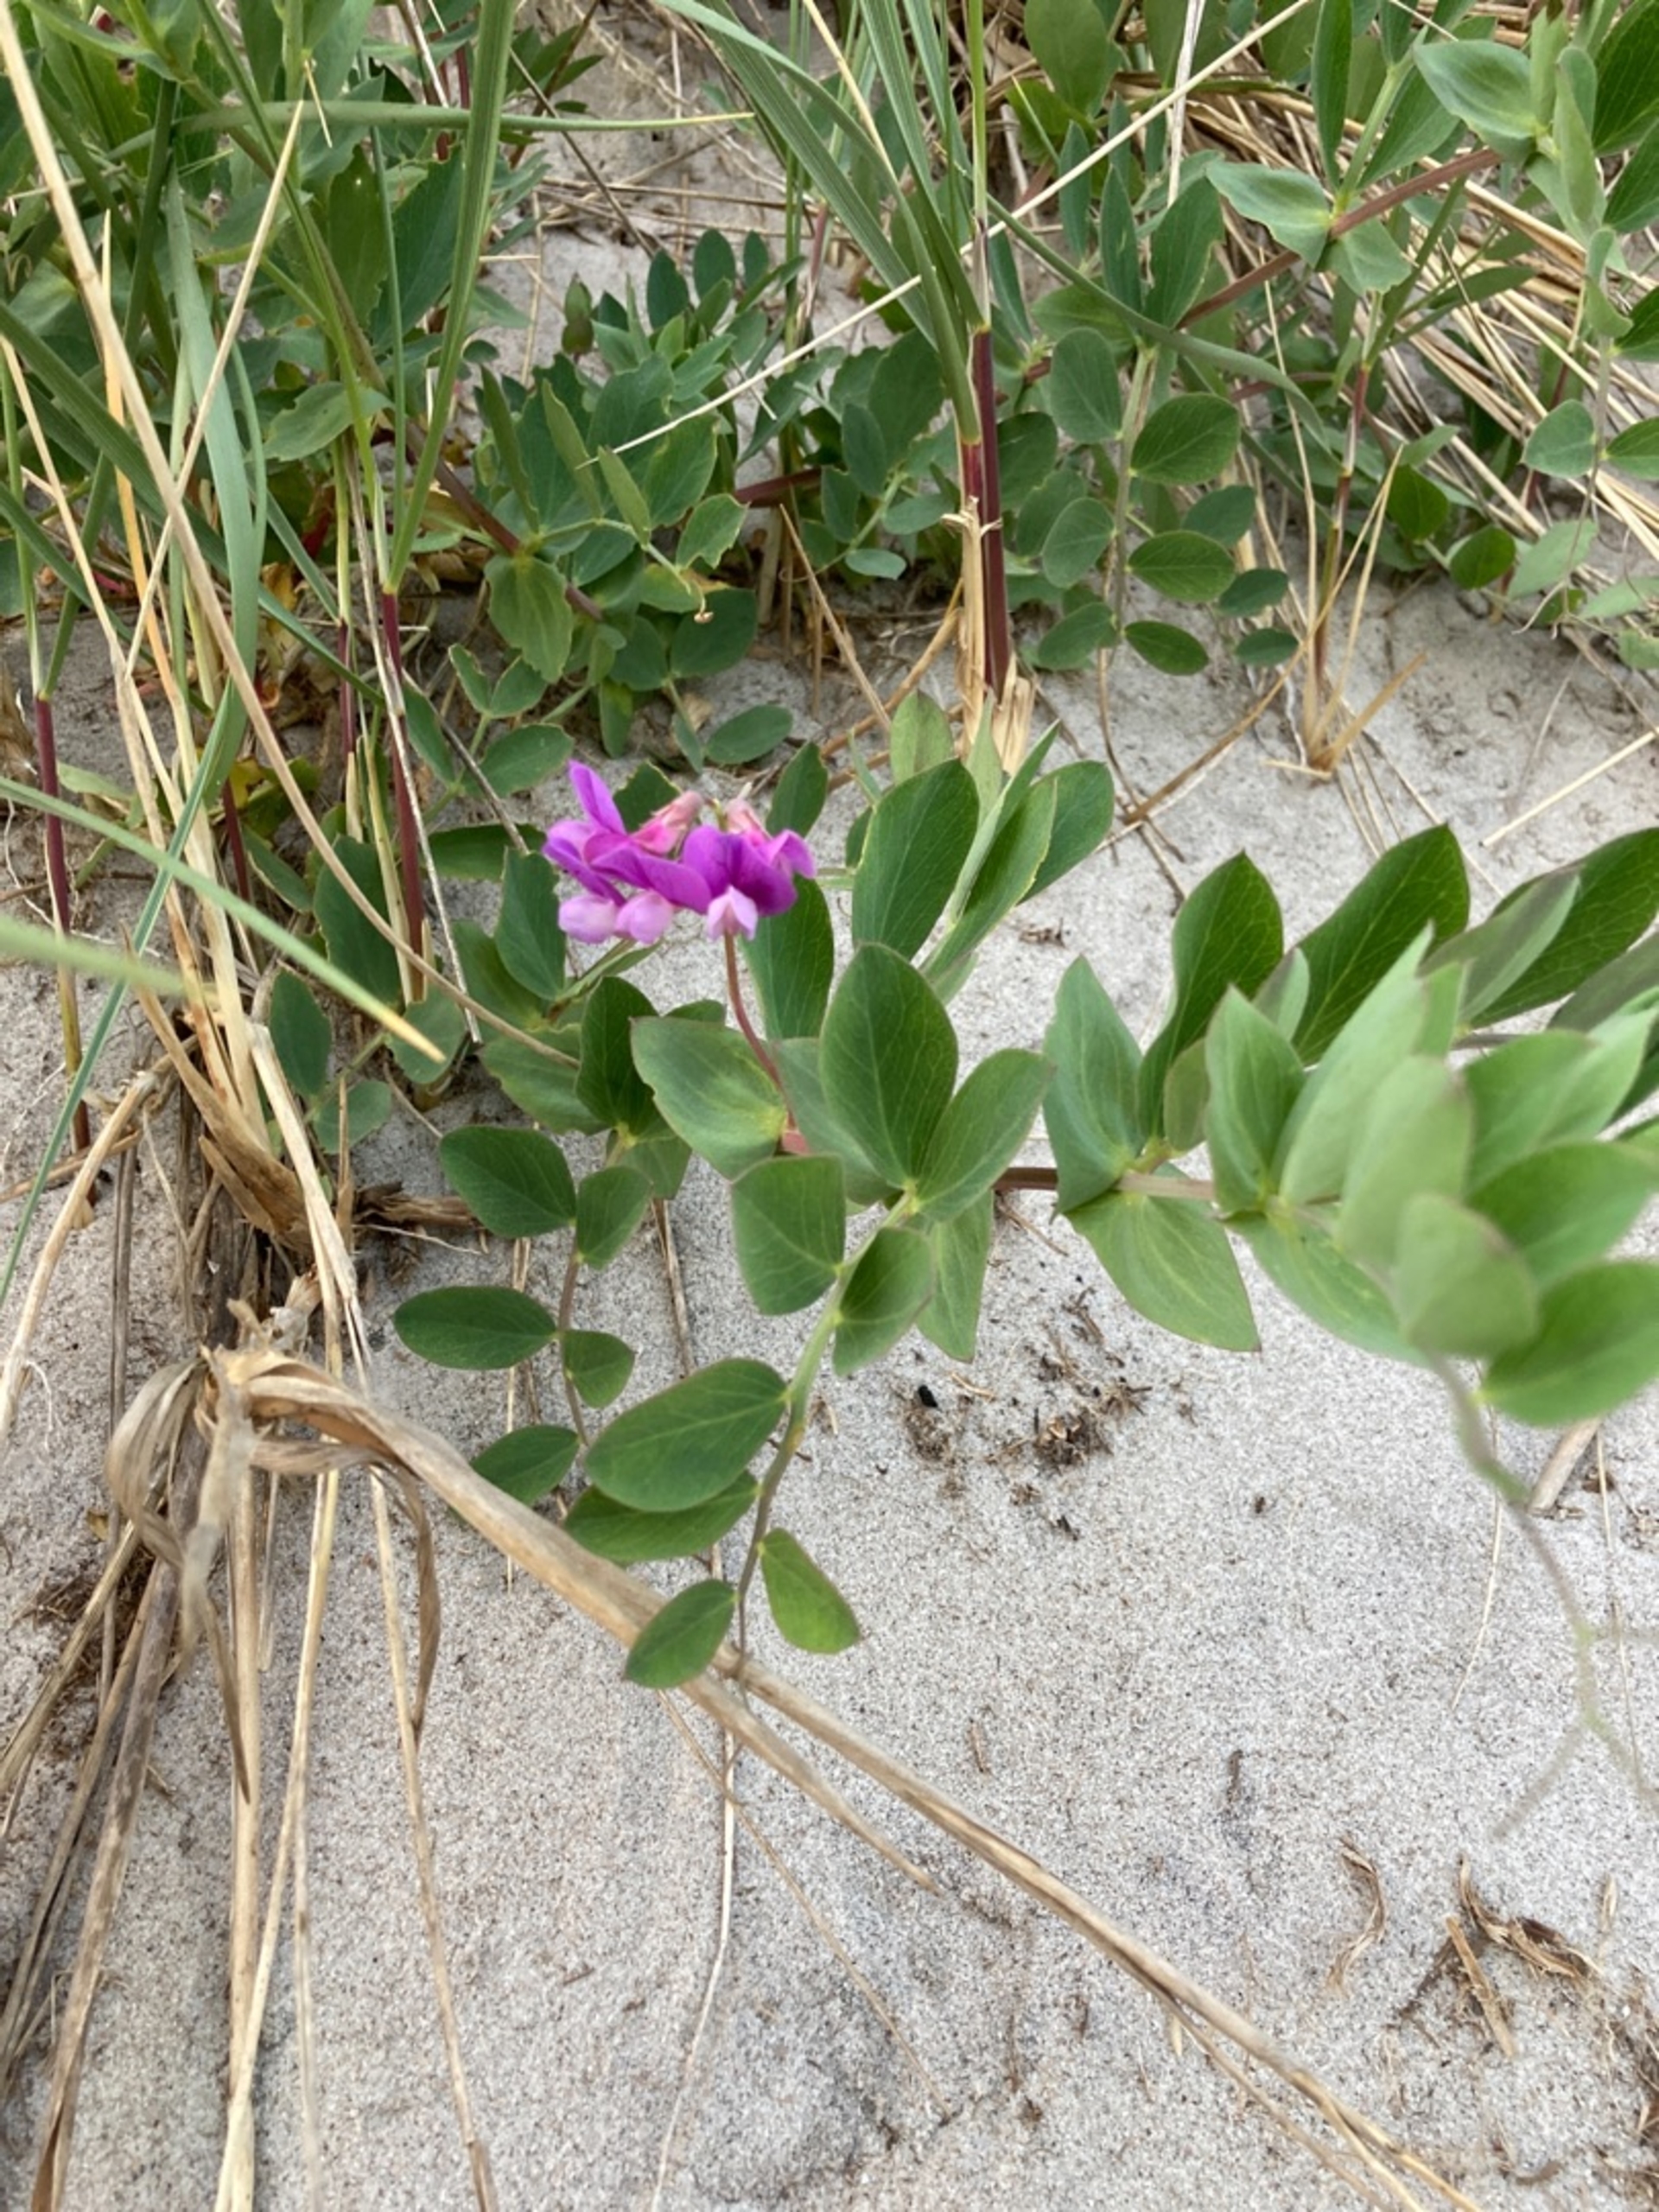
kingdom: Plantae
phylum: Tracheophyta
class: Magnoliopsida
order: Fabales
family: Fabaceae
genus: Lathyrus
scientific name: Lathyrus japonicus
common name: Klit-fladbælg
